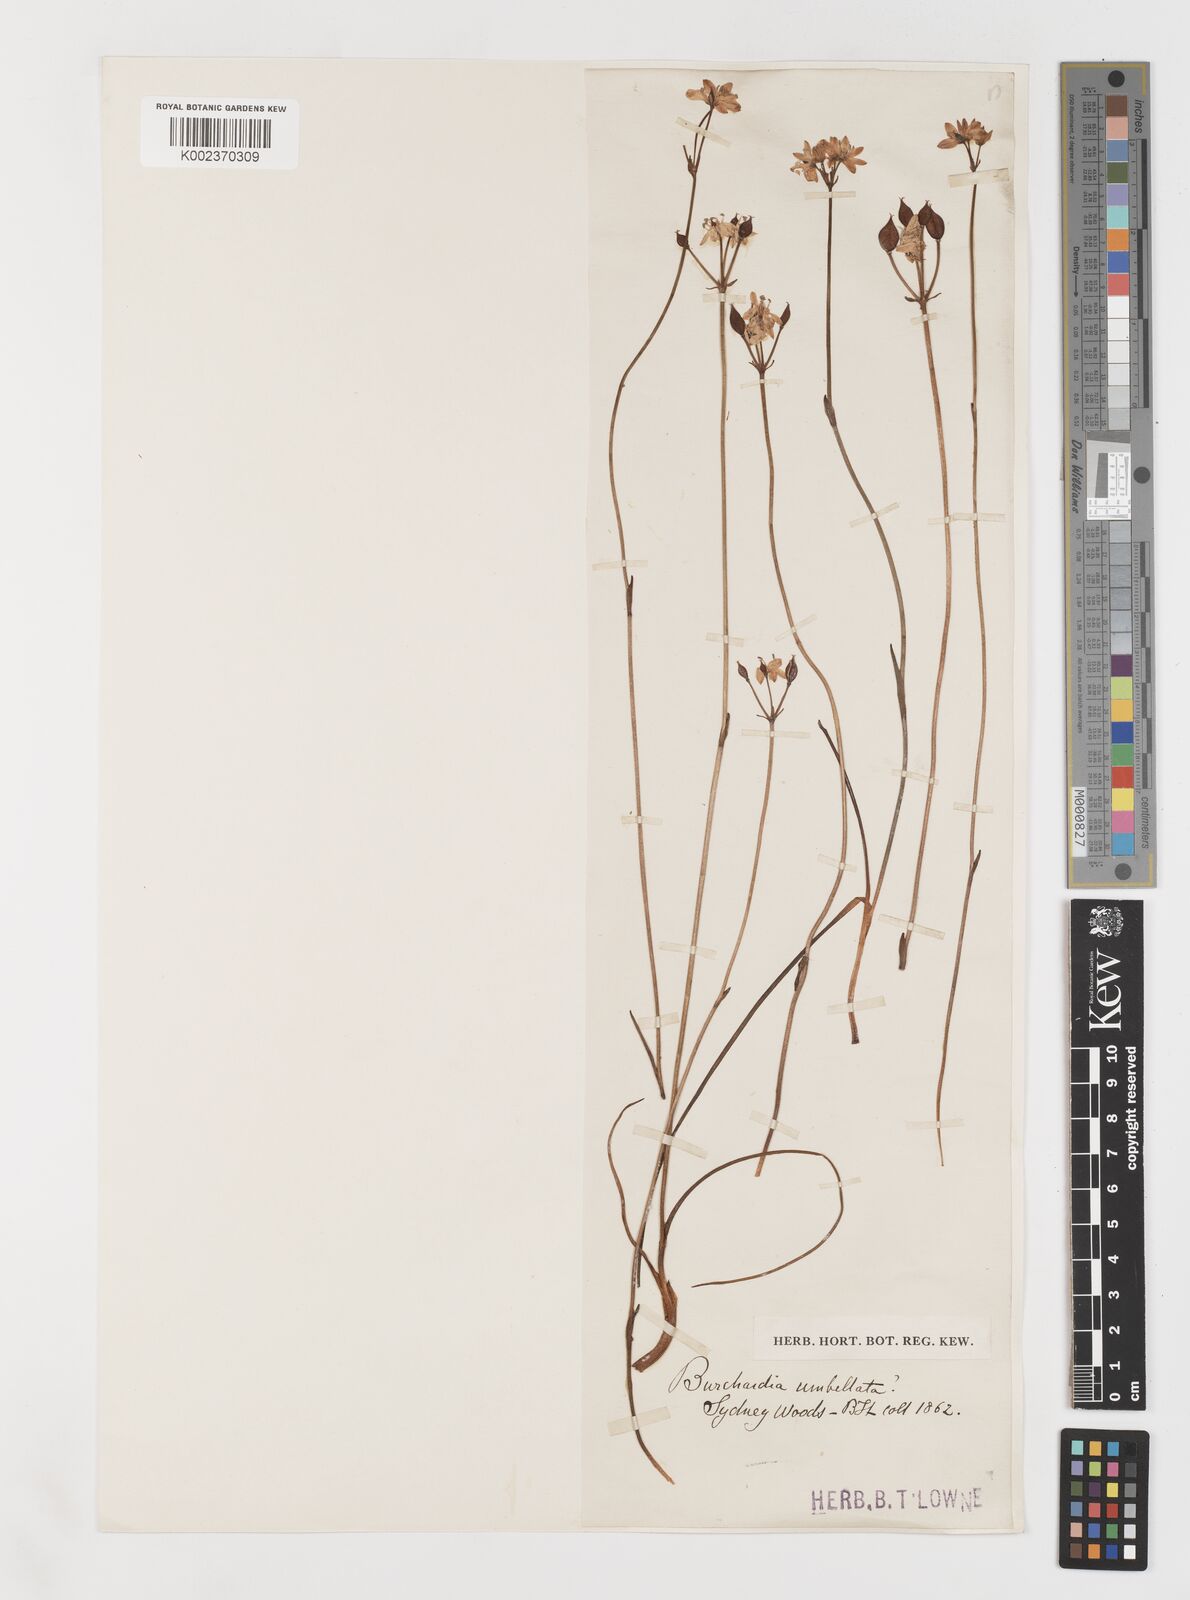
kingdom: Plantae
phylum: Tracheophyta
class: Liliopsida
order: Liliales
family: Colchicaceae
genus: Burchardia
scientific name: Burchardia umbellata
